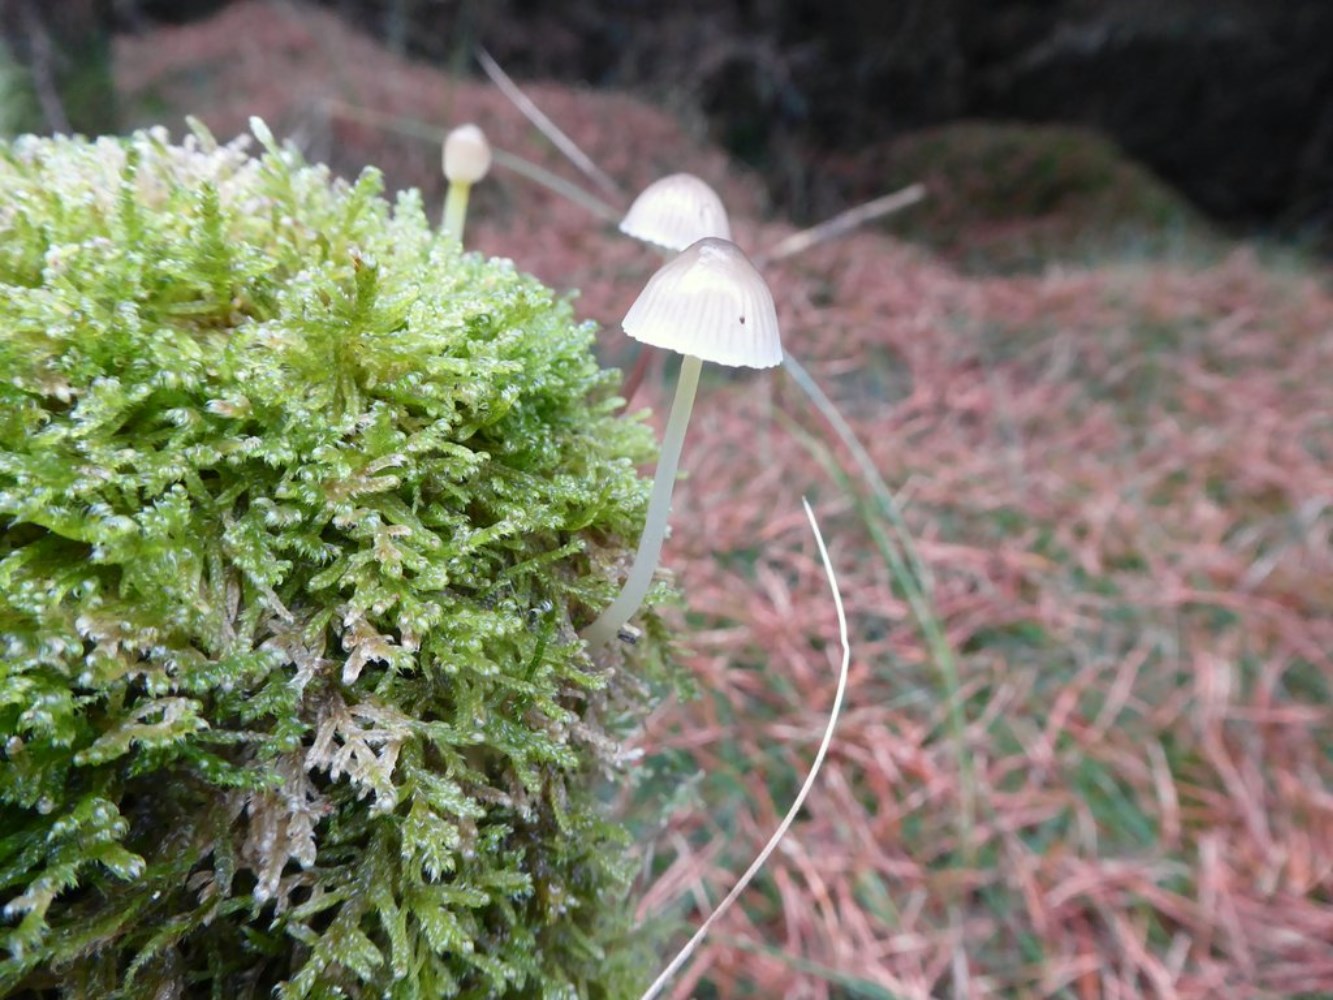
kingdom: Fungi
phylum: Basidiomycota
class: Agaricomycetes
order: Agaricales
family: Mycenaceae
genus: Mycena
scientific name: Mycena epipterygia
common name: gulstokket huesvamp
